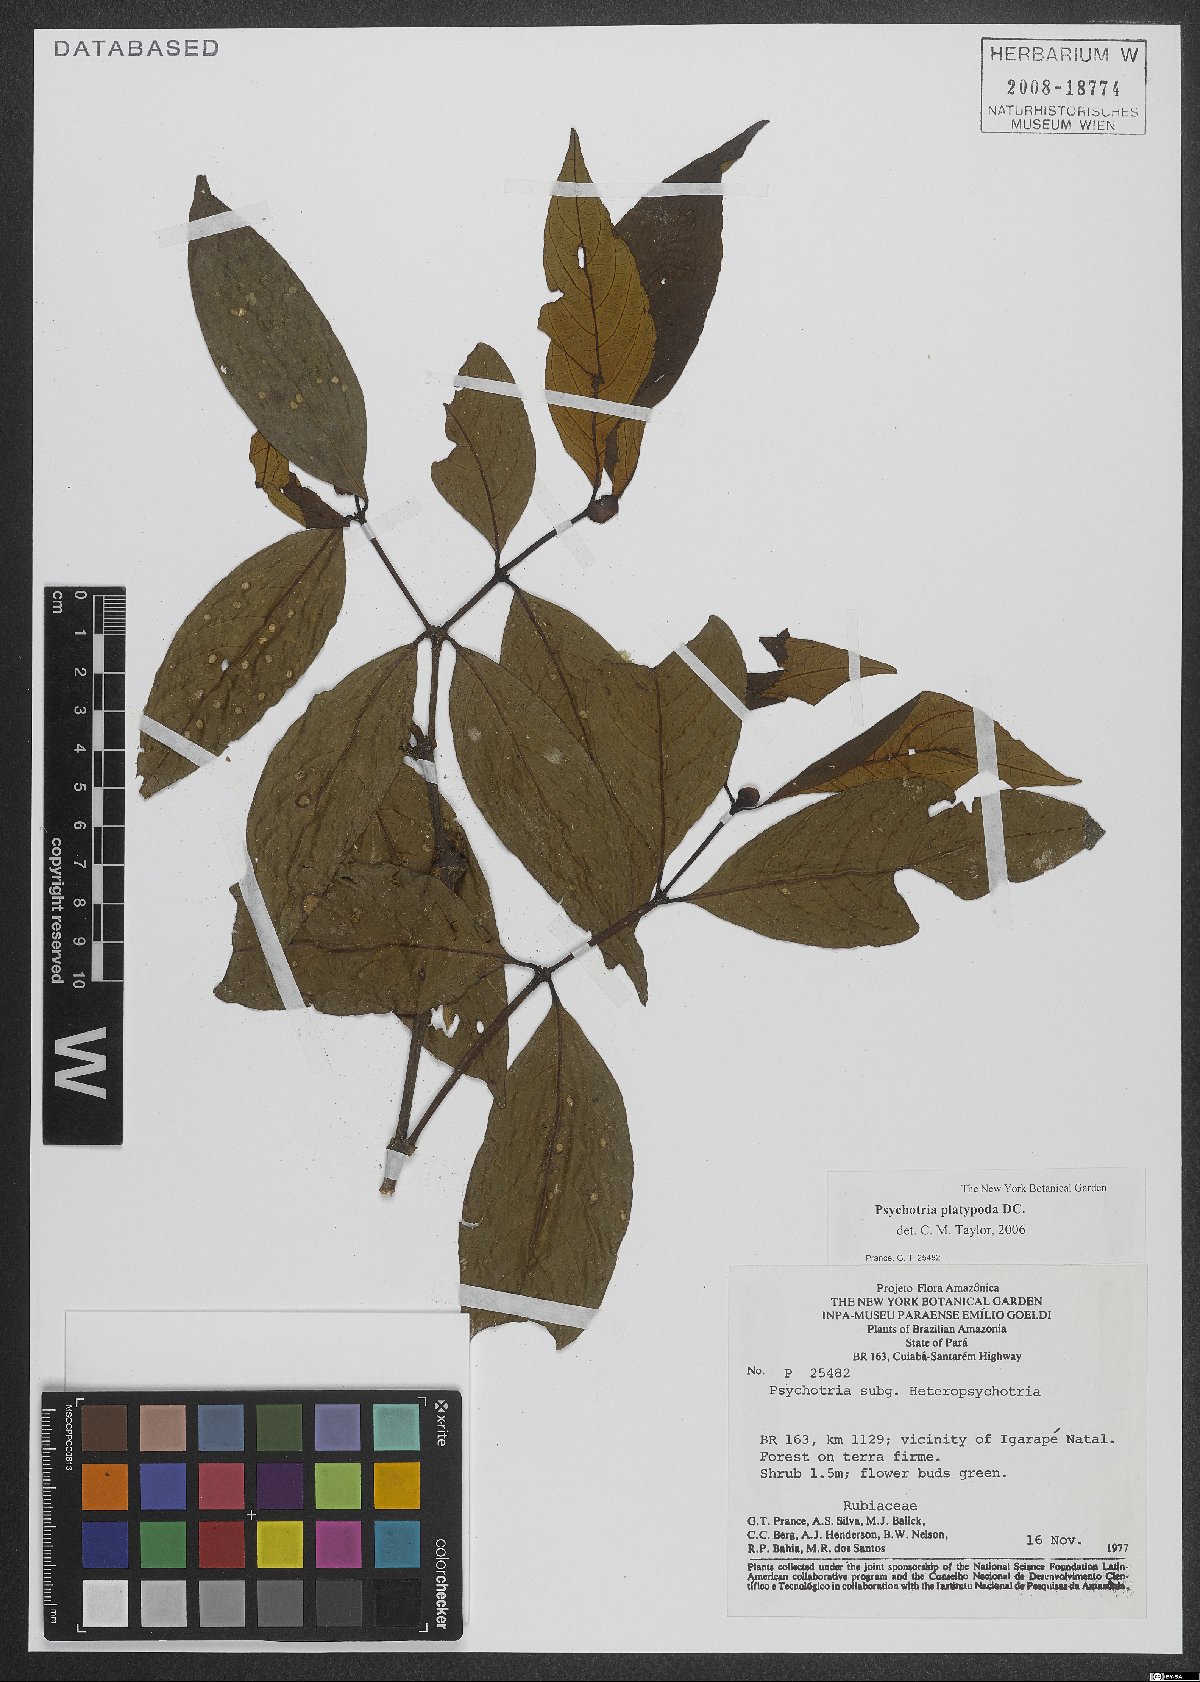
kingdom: Plantae
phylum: Tracheophyta
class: Magnoliopsida
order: Gentianales
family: Rubiaceae
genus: Palicourea
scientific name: Palicourea dichotoma
